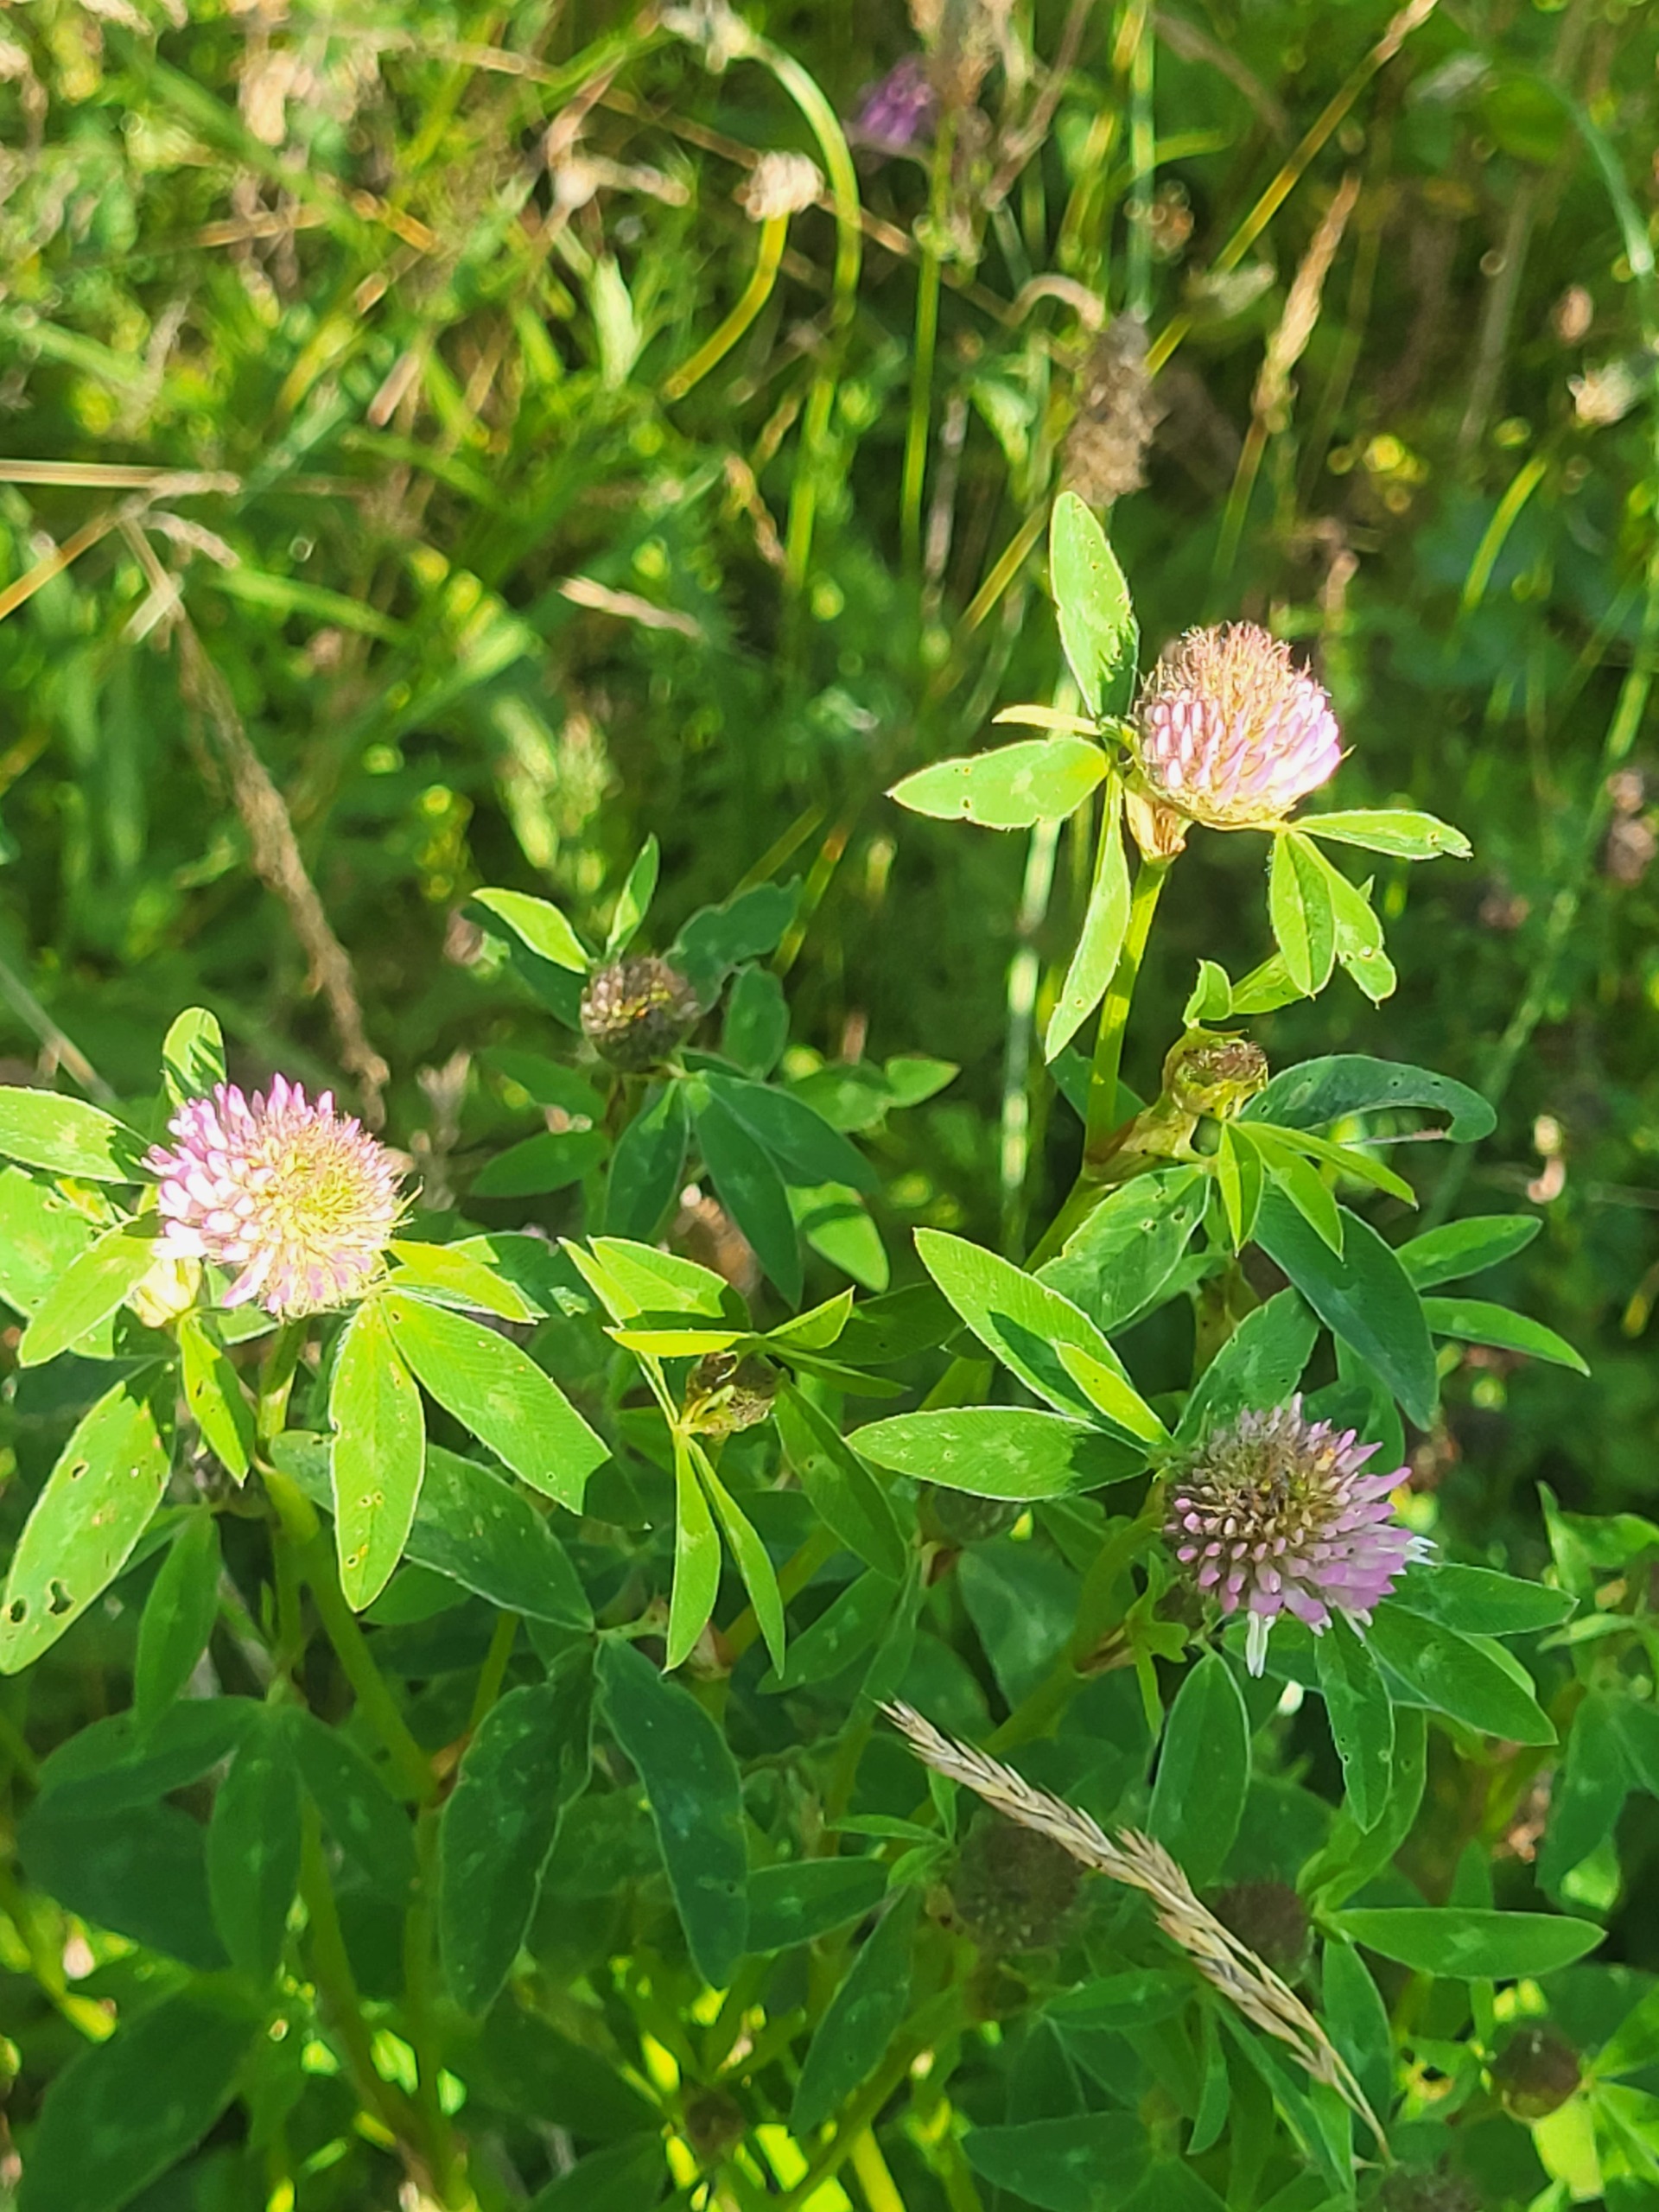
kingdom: Plantae
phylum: Tracheophyta
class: Magnoliopsida
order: Fabales
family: Fabaceae
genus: Trifolium
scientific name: Trifolium pratense
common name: Rød-kløver
